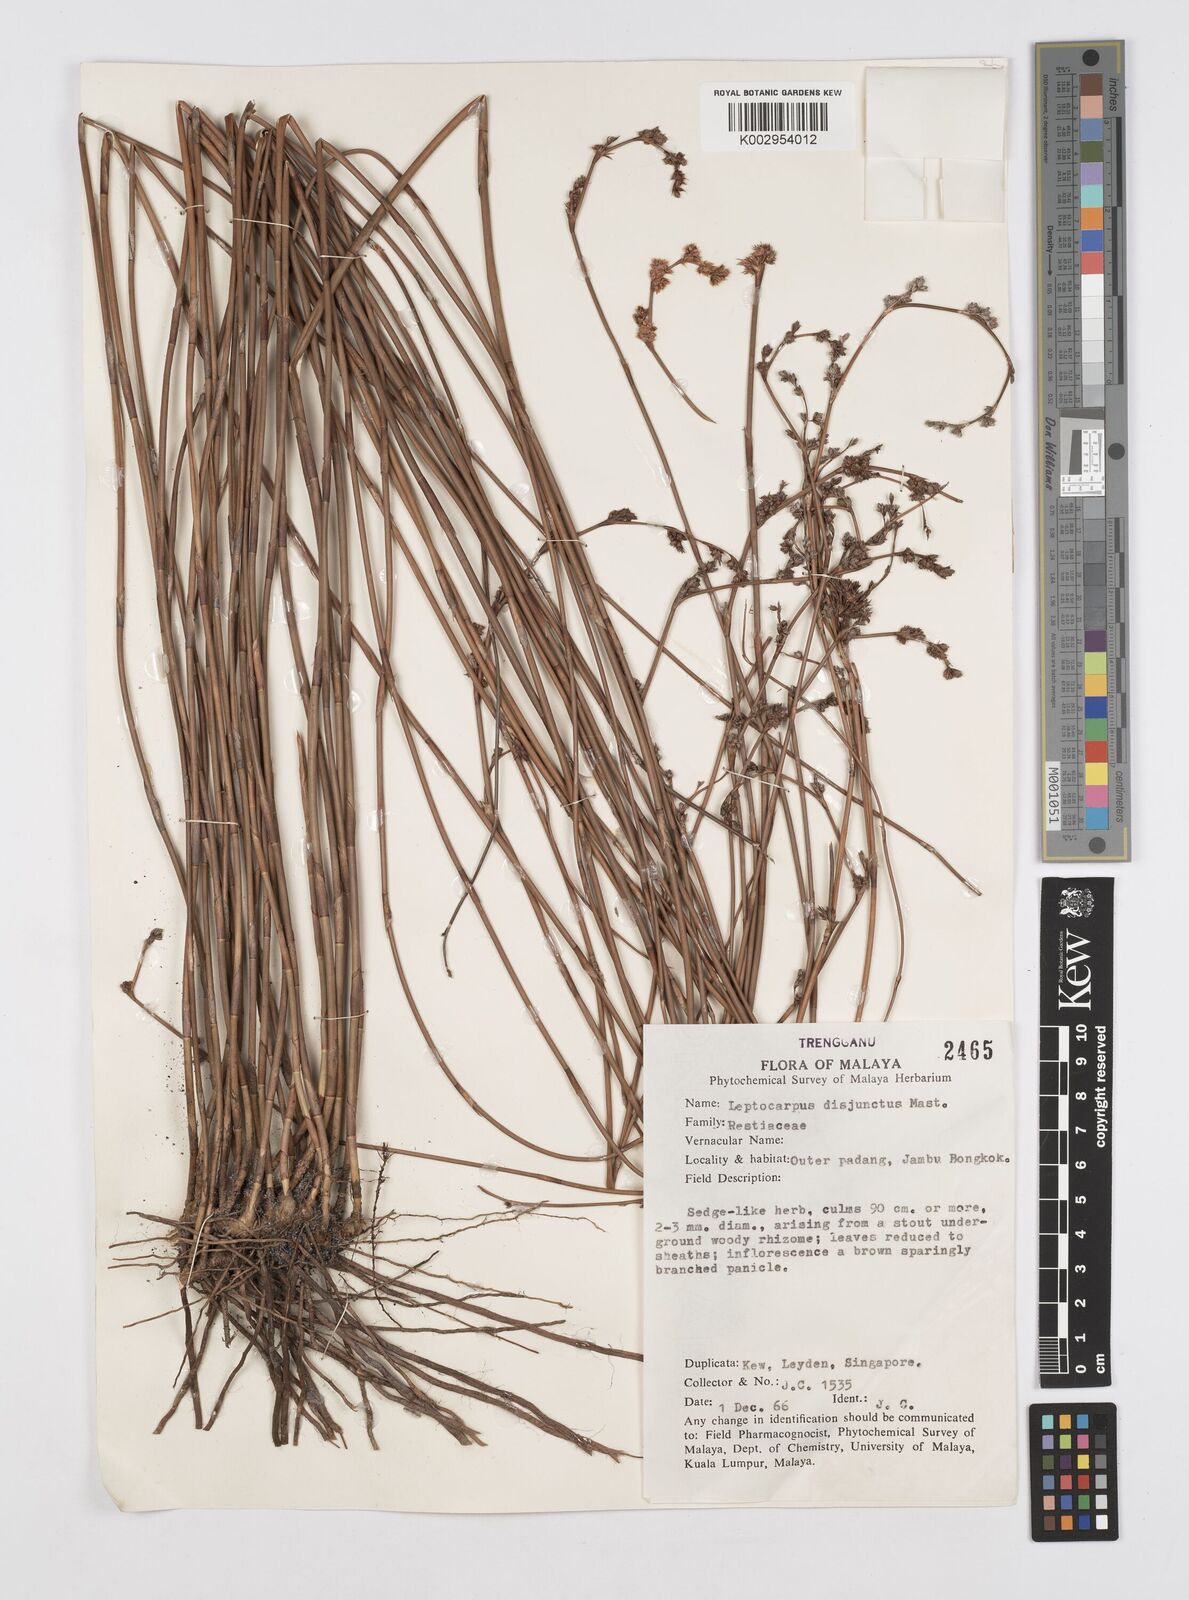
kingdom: Plantae
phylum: Tracheophyta
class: Liliopsida
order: Poales
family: Restionaceae
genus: Dapsilanthus
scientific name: Dapsilanthus disjunctus
